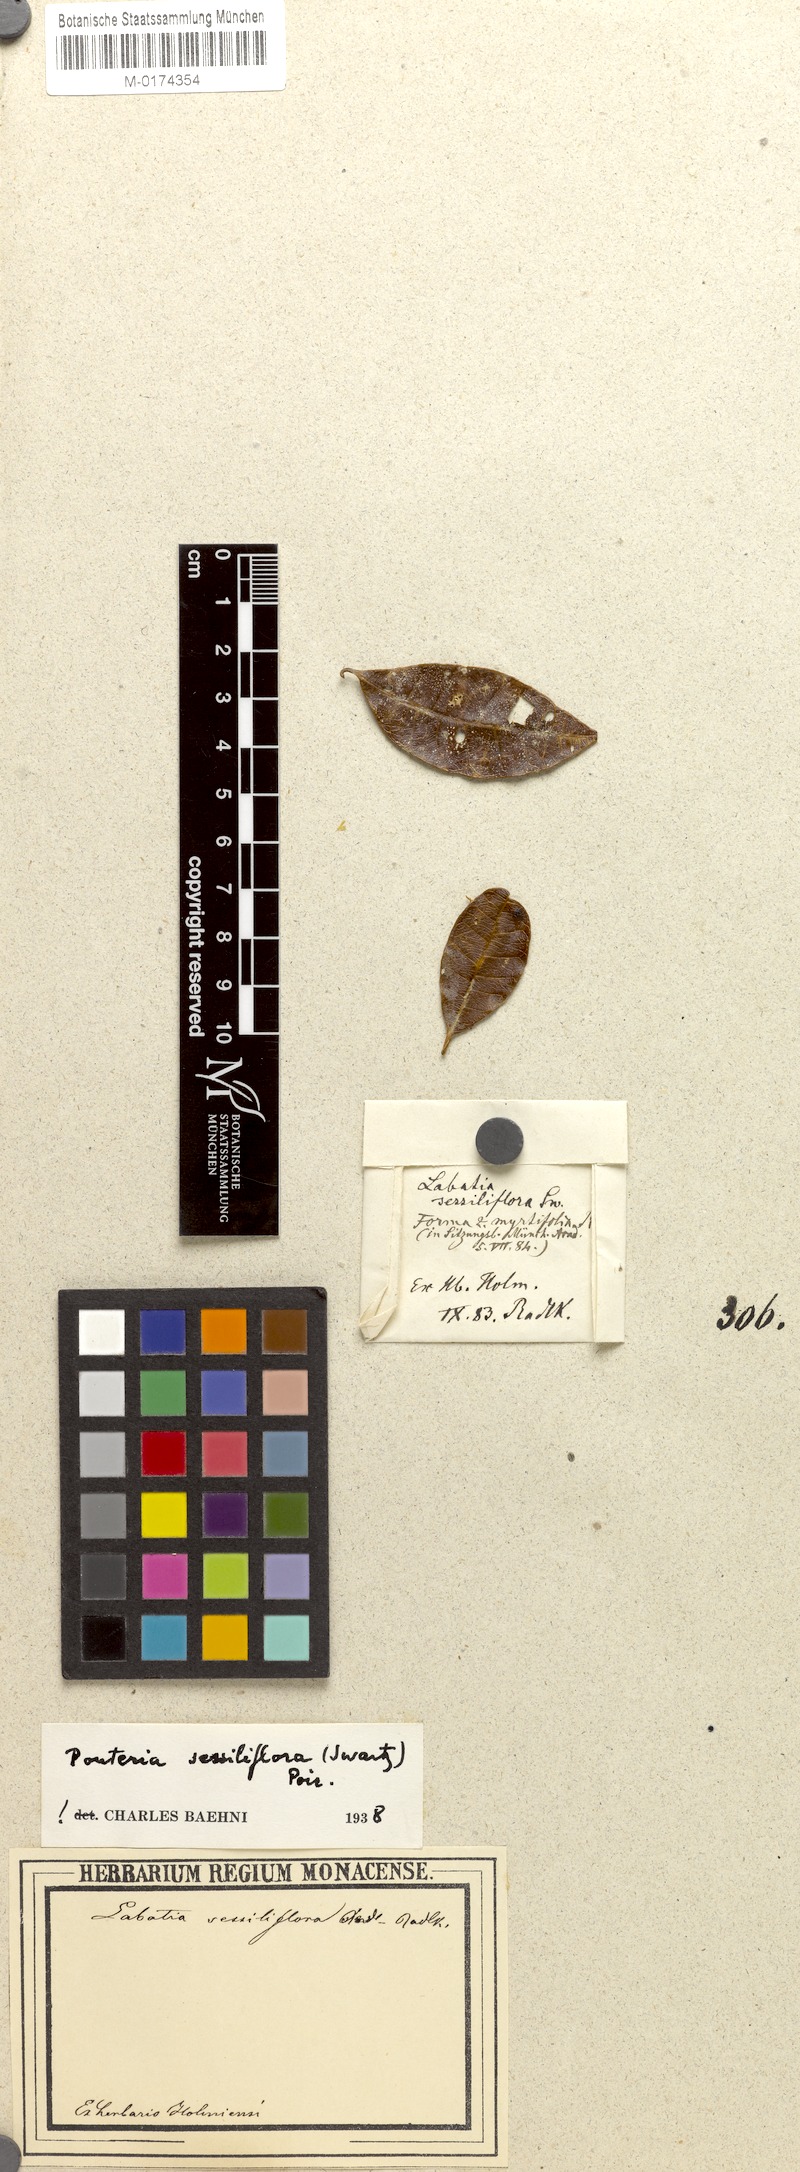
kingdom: Plantae
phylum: Tracheophyta
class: Magnoliopsida
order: Ericales
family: Sapotaceae
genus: Pouteria
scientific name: Pouteria sessiliflora
